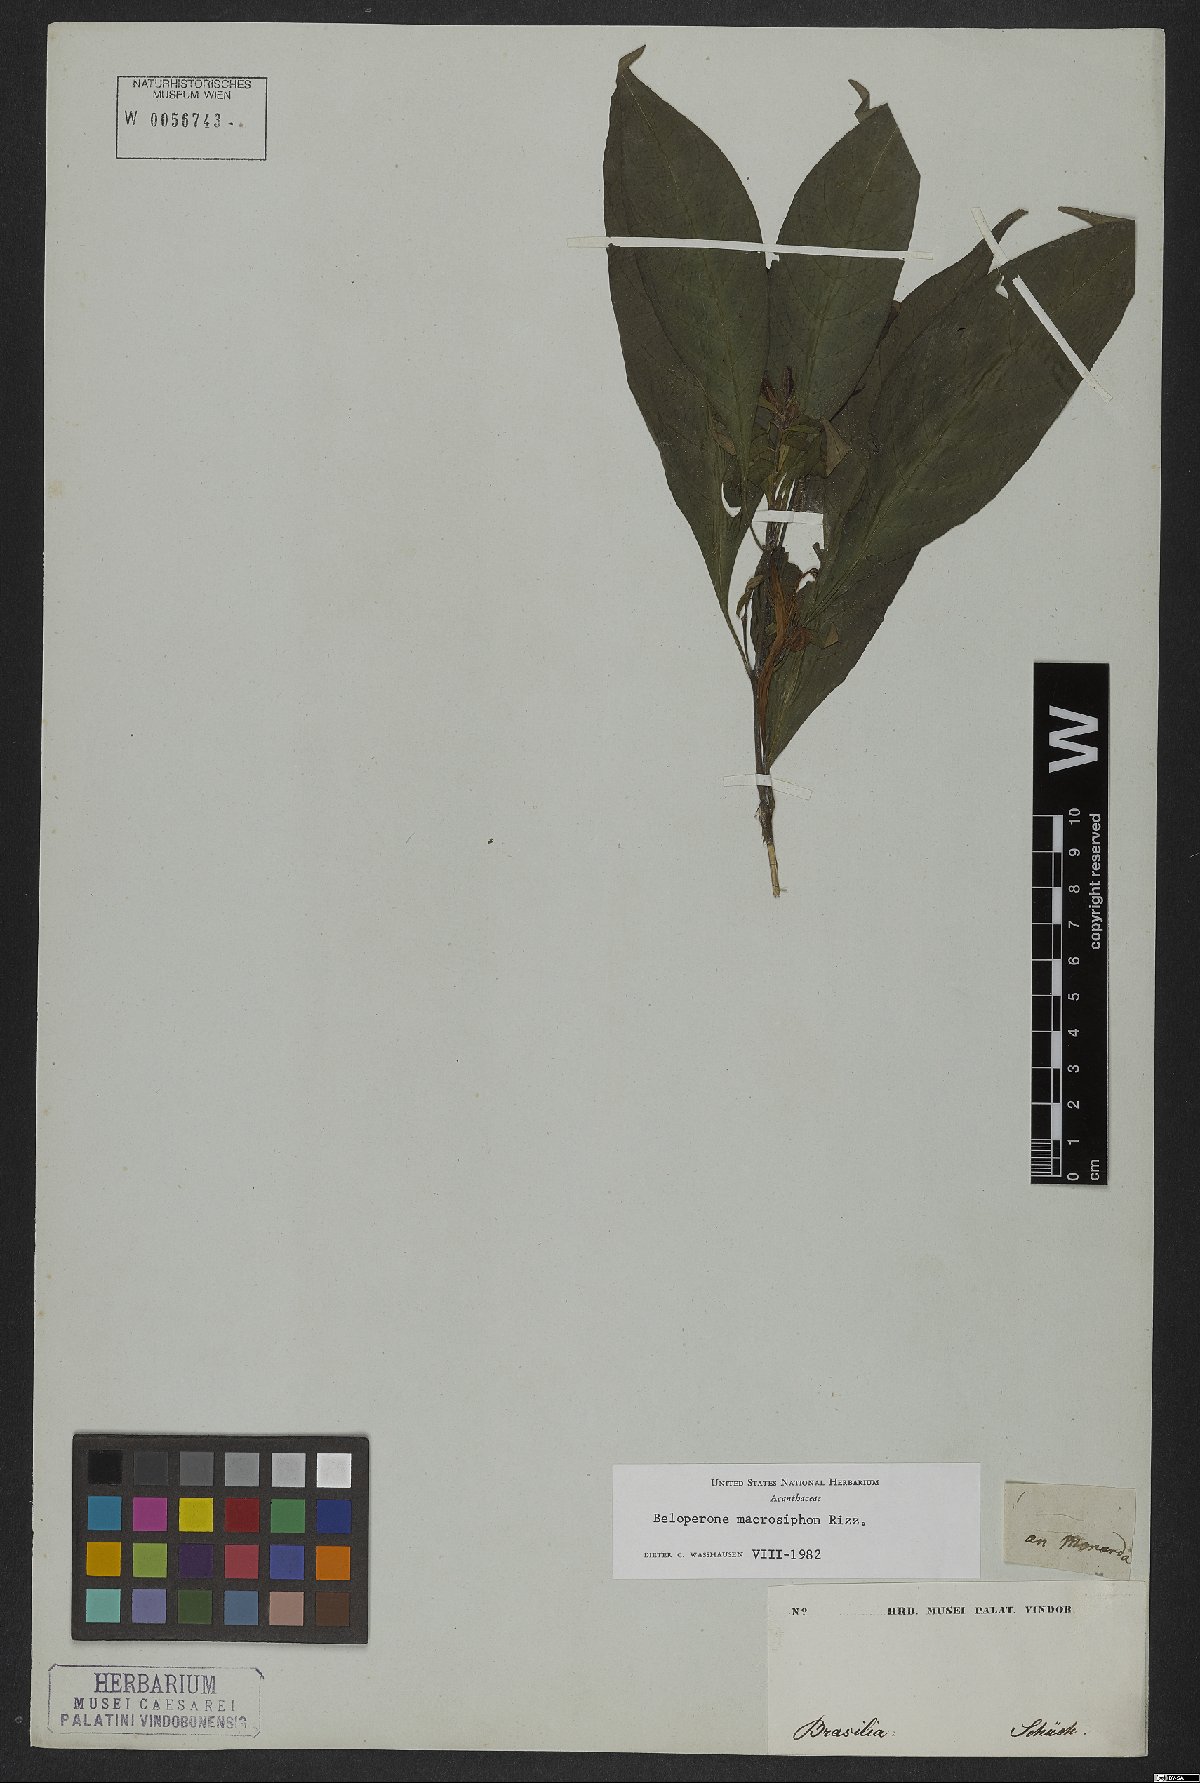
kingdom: Plantae
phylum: Tracheophyta
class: Magnoliopsida
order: Lamiales
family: Acanthaceae
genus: Justicia
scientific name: Justicia riedeliana
